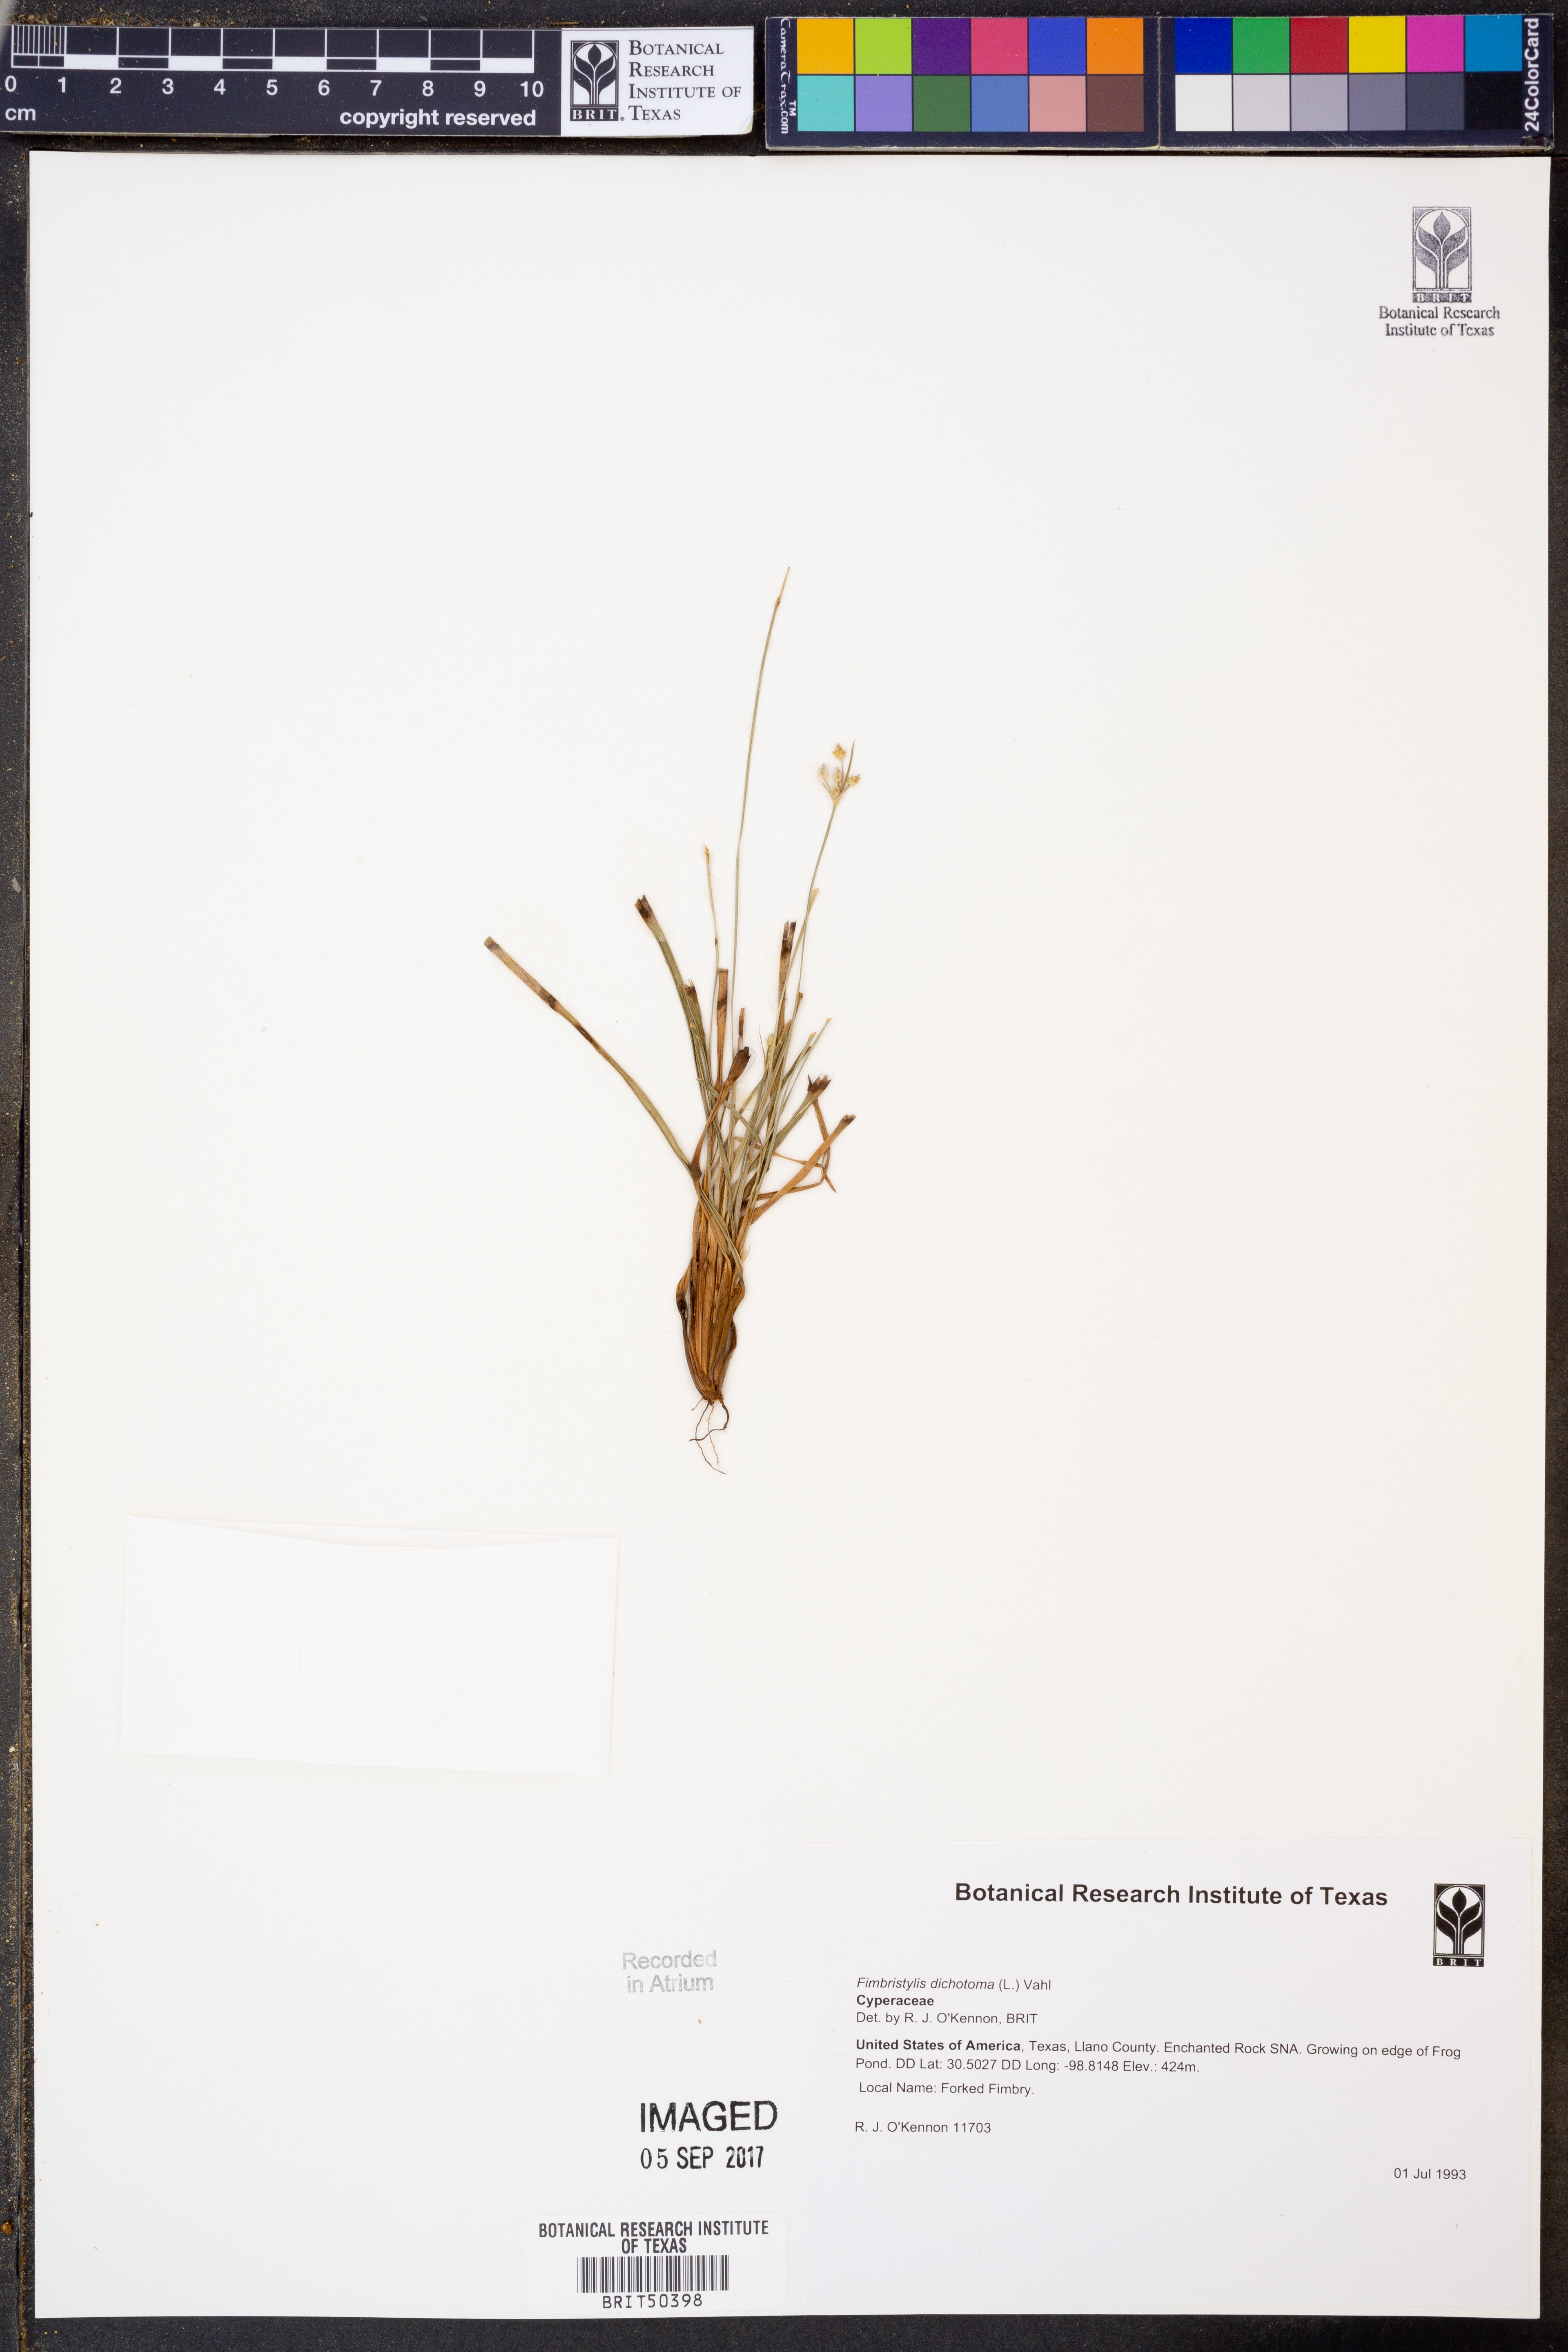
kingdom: Plantae
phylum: Tracheophyta
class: Liliopsida
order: Poales
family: Cyperaceae
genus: Fimbristylis
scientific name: Fimbristylis dichotoma
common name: Forked fimbry
